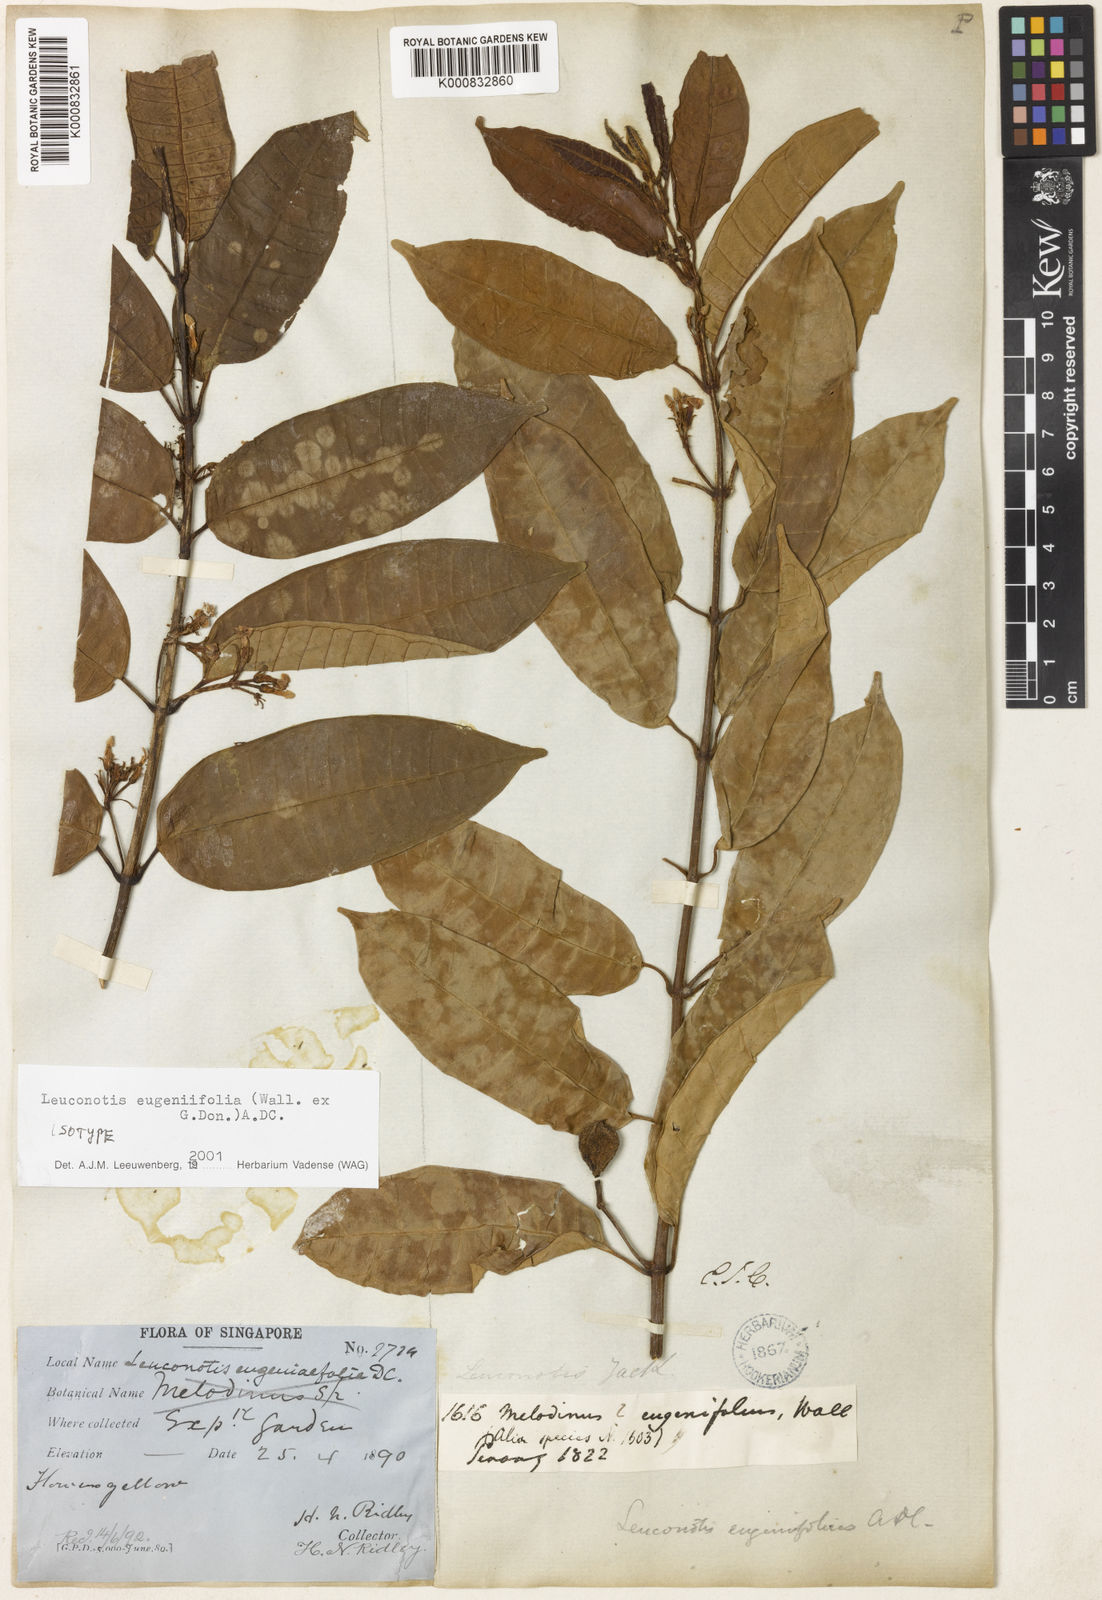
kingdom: Plantae
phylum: Tracheophyta
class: Magnoliopsida
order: Gentianales
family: Apocynaceae
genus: Leuconotis
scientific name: Leuconotis eugeniifolia
